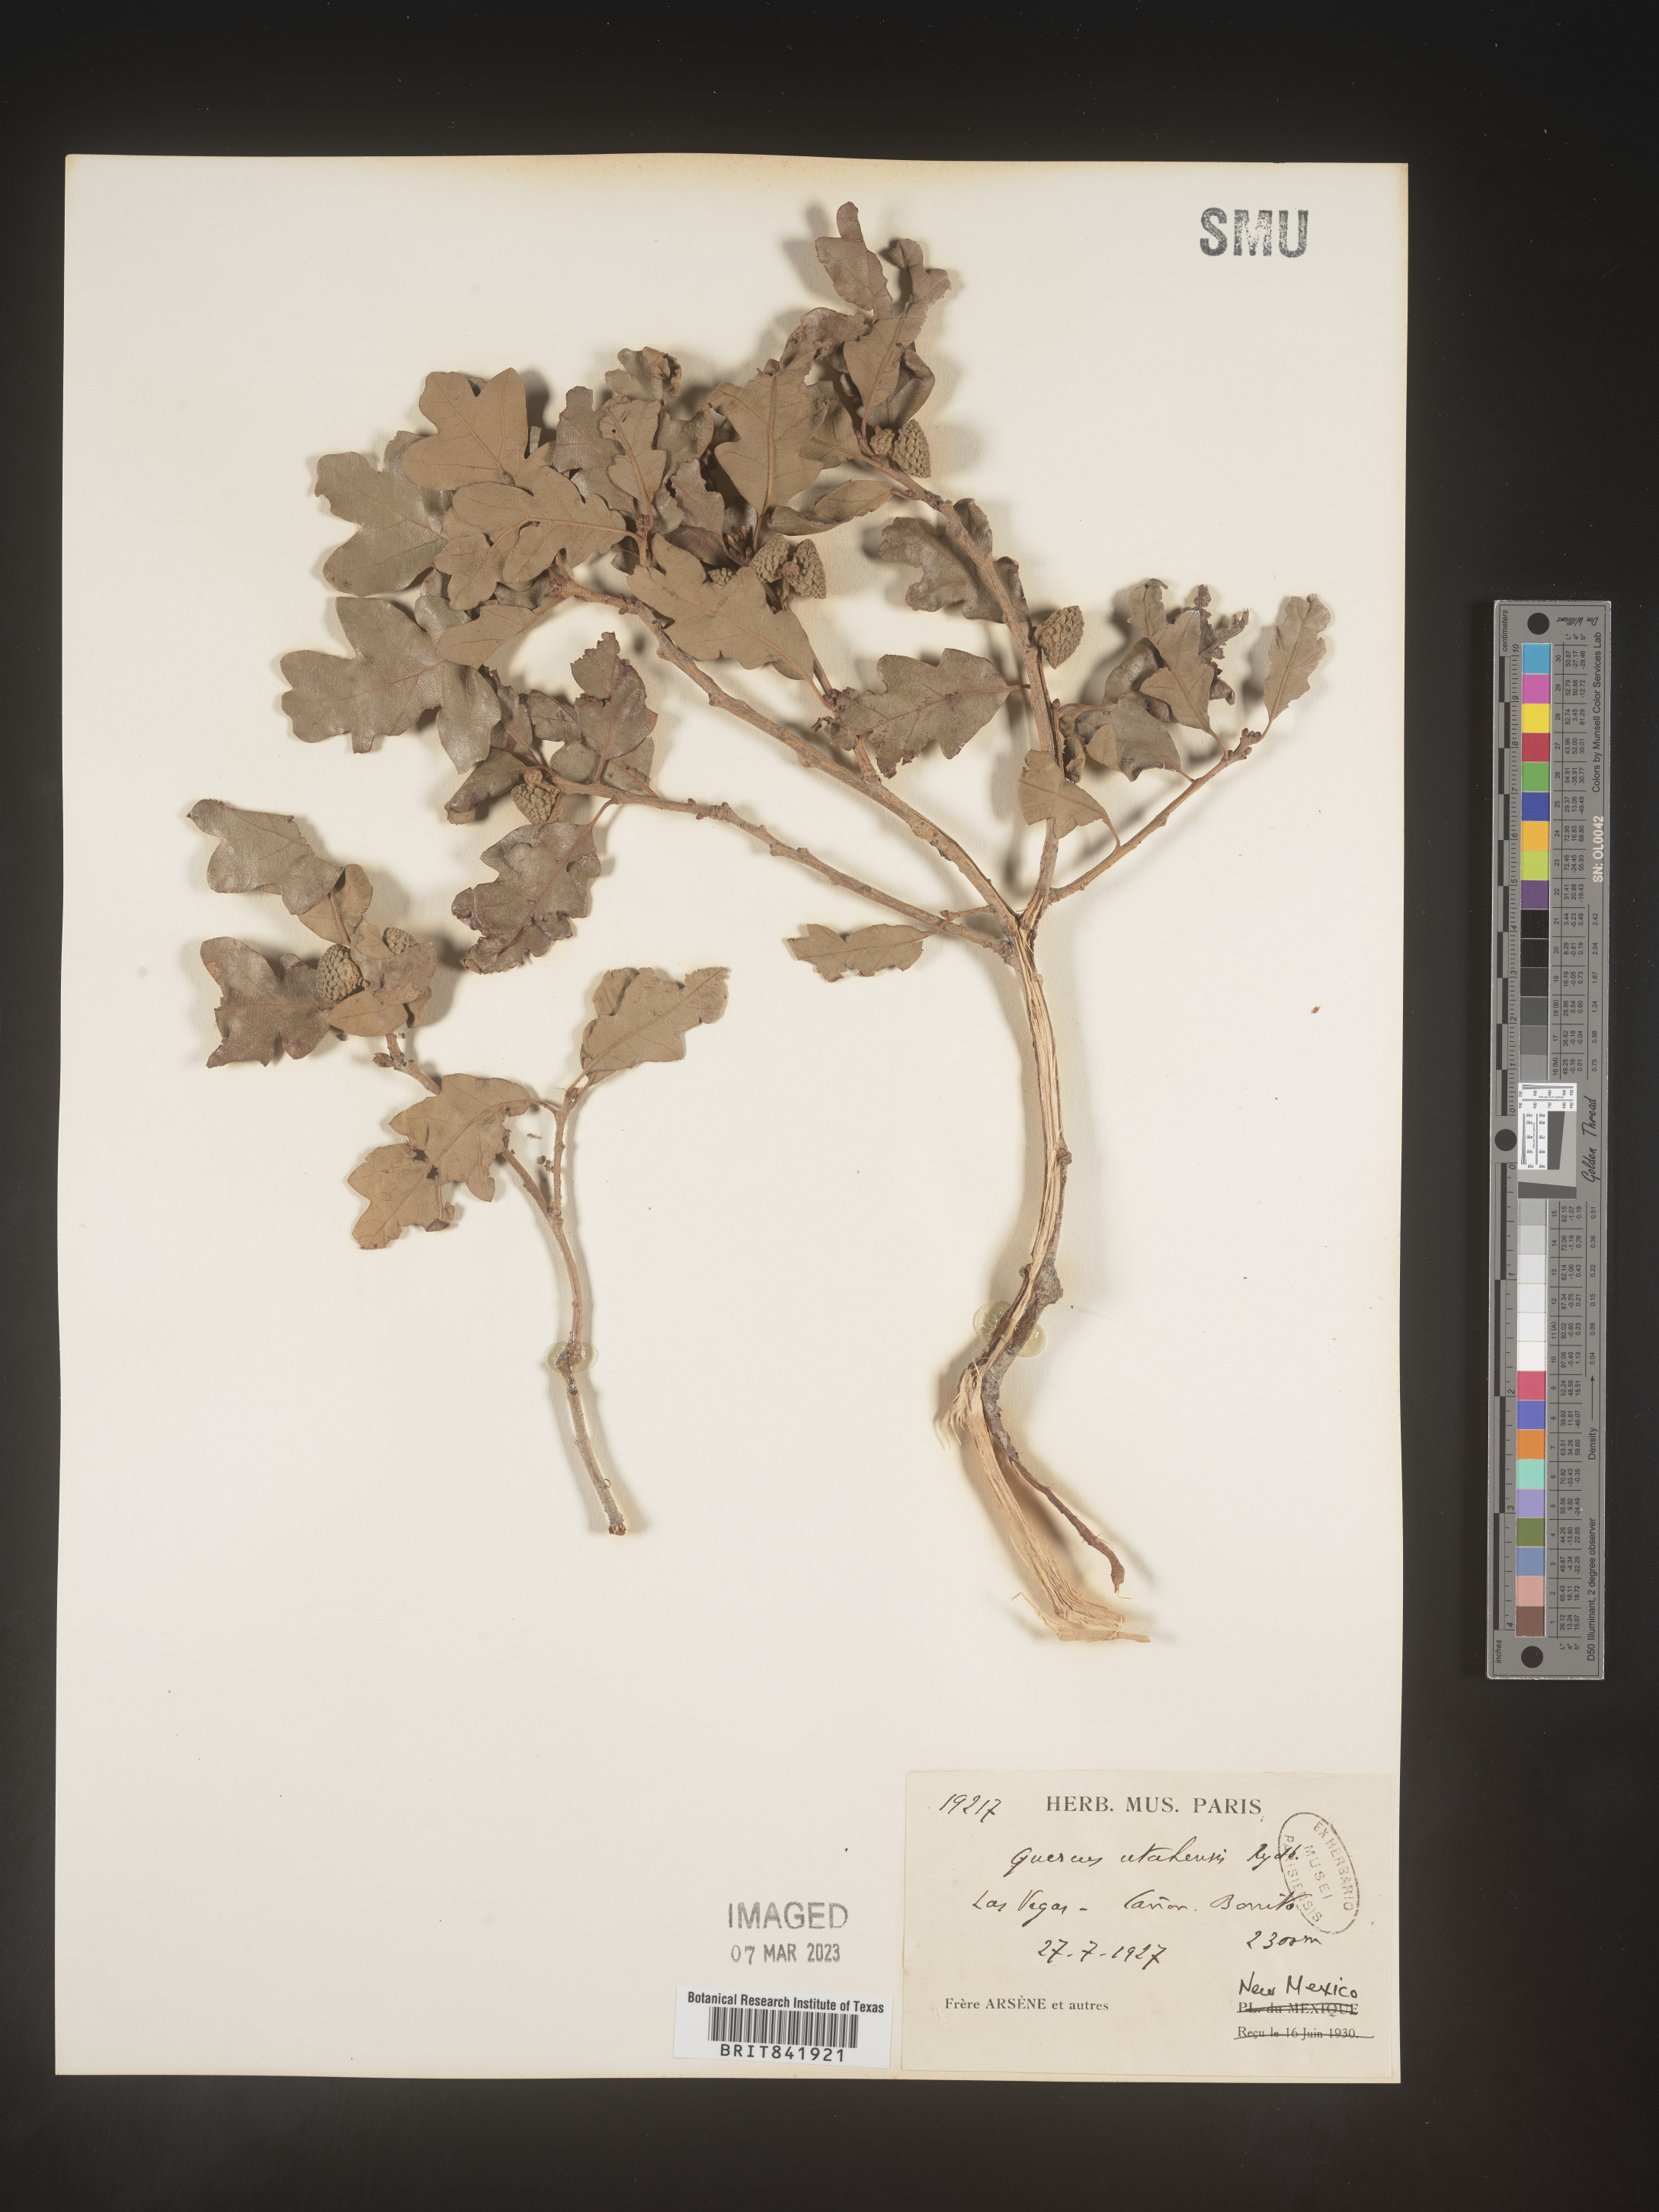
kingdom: Plantae
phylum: Tracheophyta
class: Magnoliopsida
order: Fagales
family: Fagaceae
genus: Quercus
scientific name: Quercus gambelii
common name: Gambel oak
